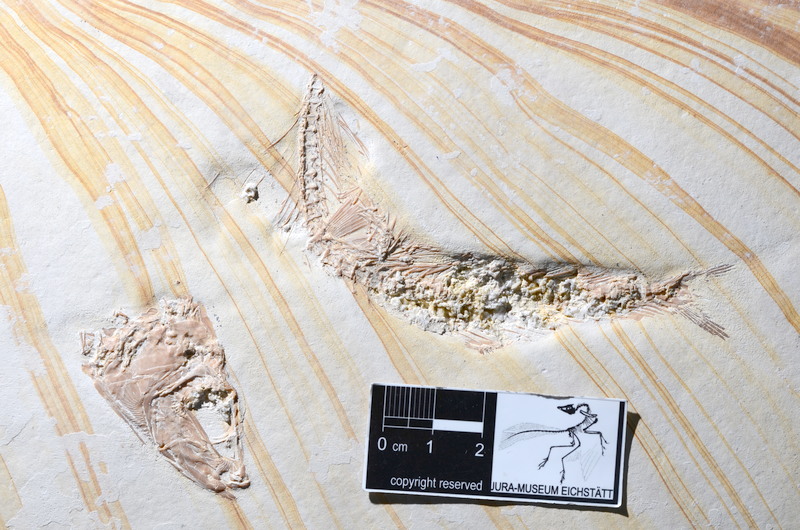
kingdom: Animalia
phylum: Chordata
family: Ascalaboidae
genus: Tharsis
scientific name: Tharsis dubius
